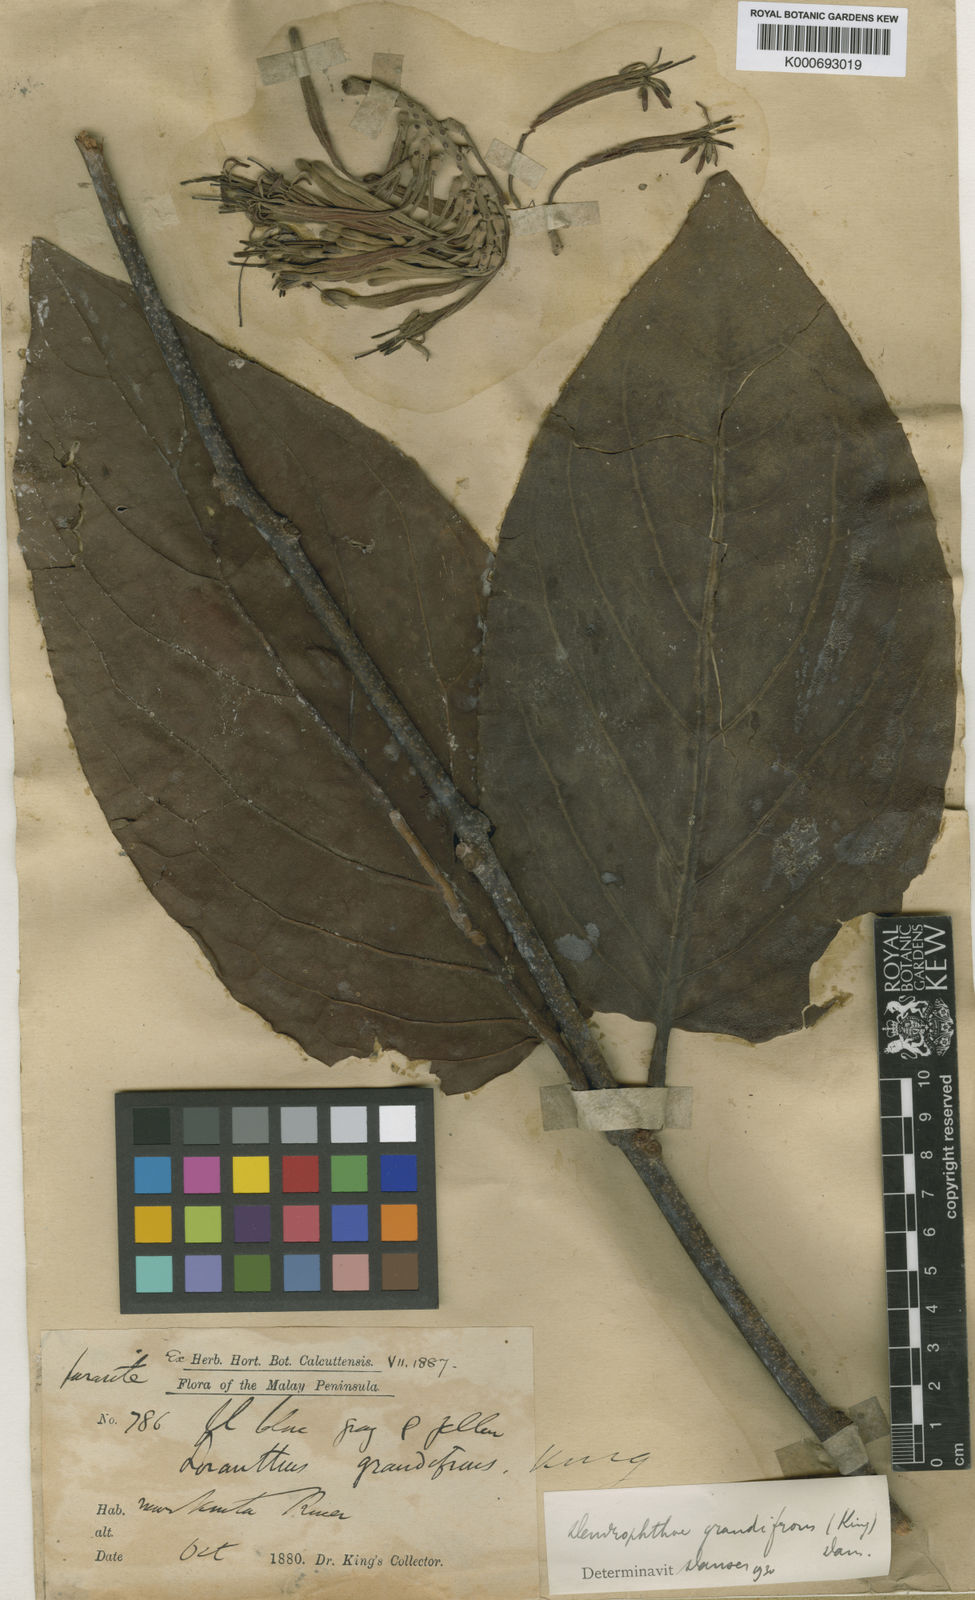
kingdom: Plantae
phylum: Tracheophyta
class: Magnoliopsida
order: Santalales
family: Loranthaceae
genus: Dendrophthoe
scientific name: Dendrophthoe incarnata
